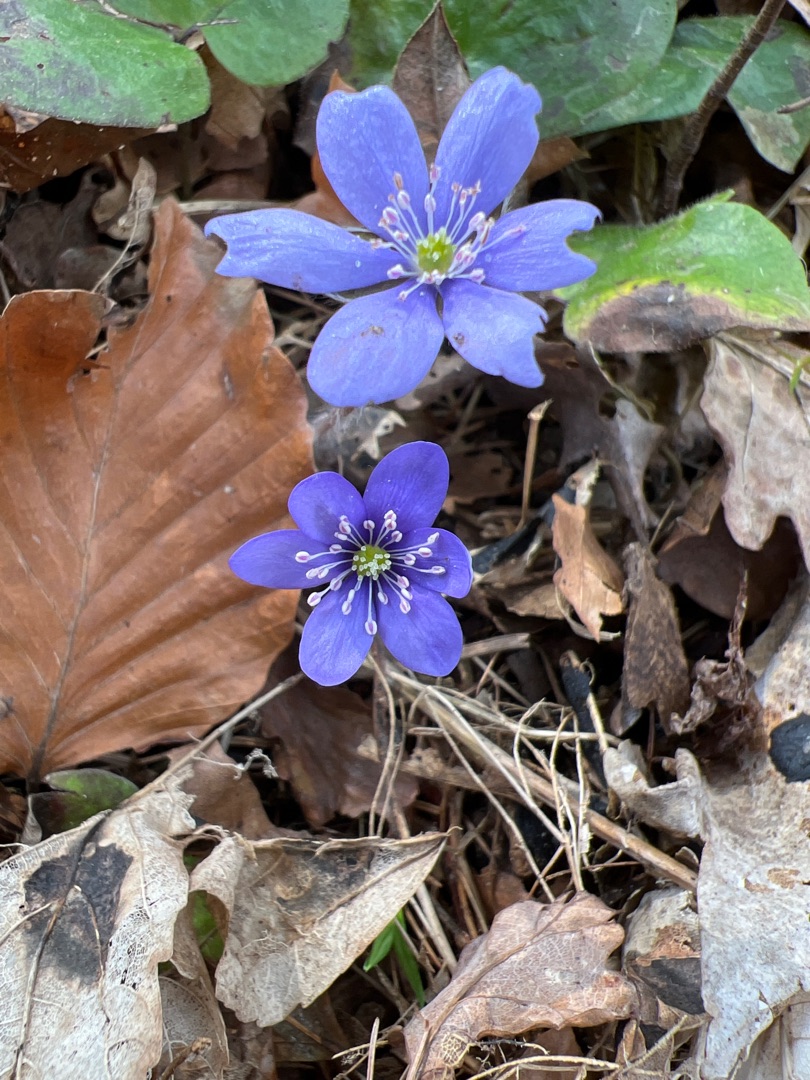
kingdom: Plantae
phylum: Tracheophyta
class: Magnoliopsida
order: Ranunculales
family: Ranunculaceae
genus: Hepatica
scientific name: Hepatica nobilis
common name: Blå anemone
